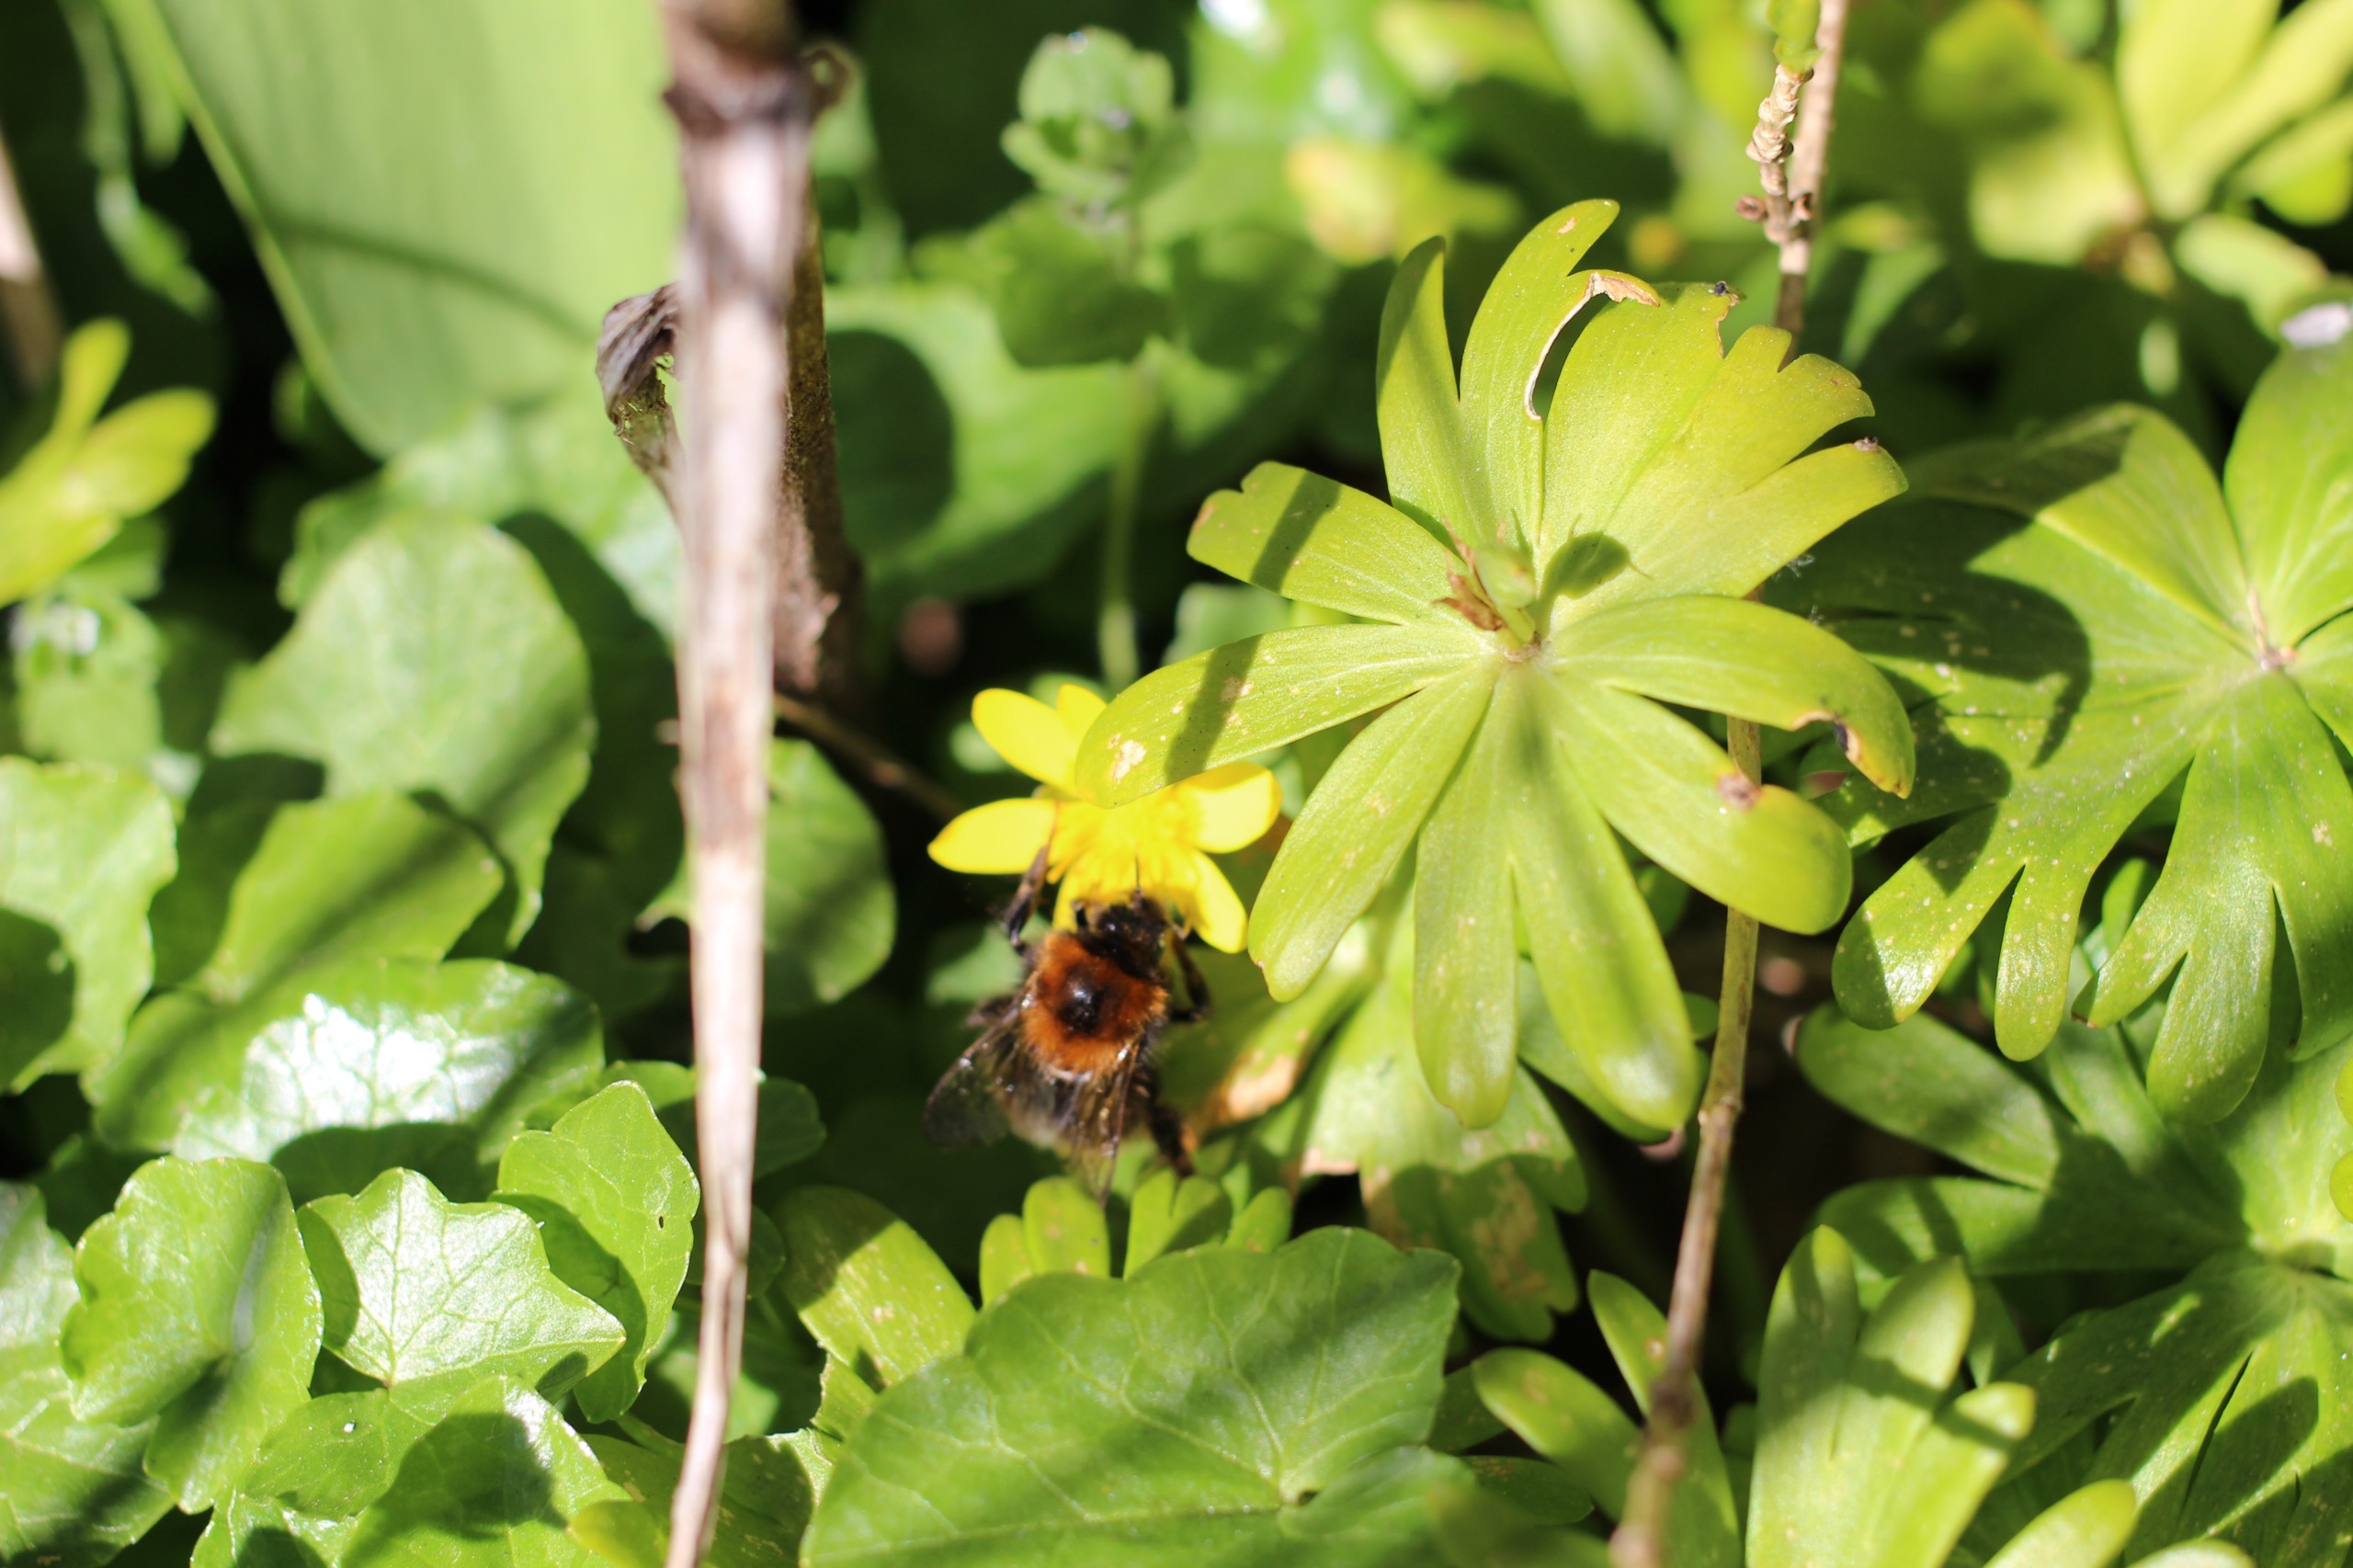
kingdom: Animalia
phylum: Arthropoda
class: Insecta
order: Hymenoptera
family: Apidae
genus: Bombus
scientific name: Bombus hypnorum
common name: Hushumle
